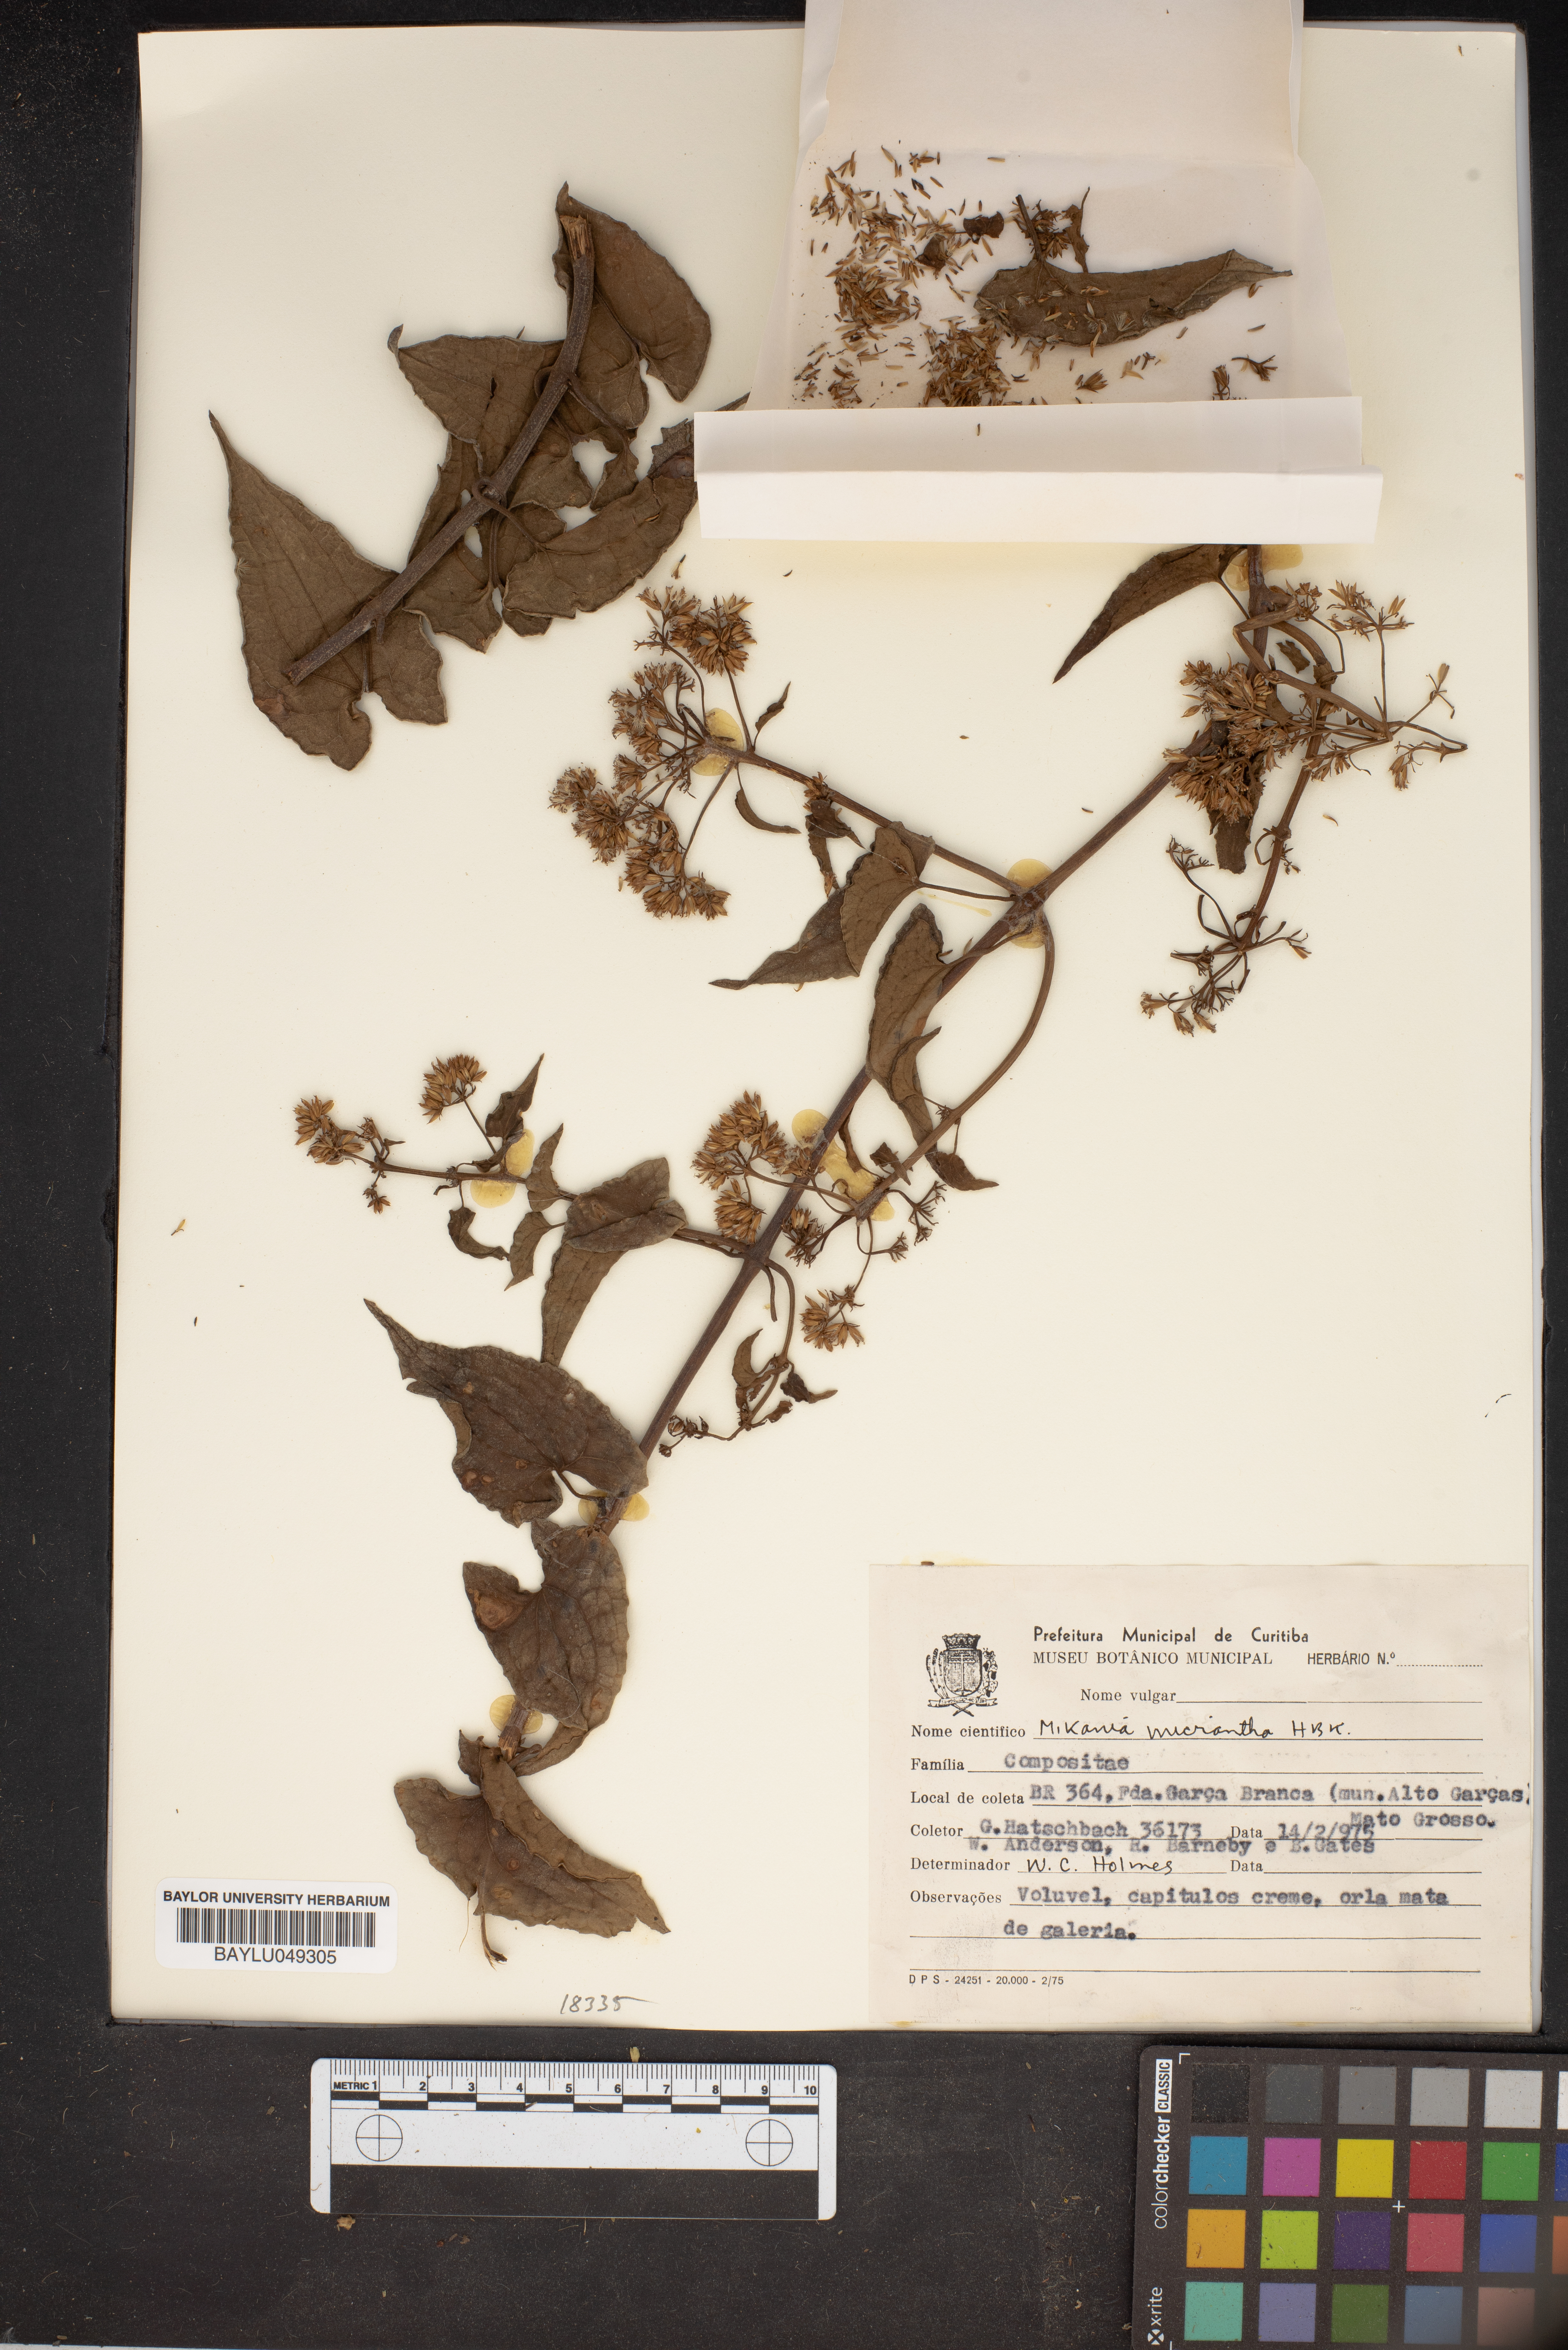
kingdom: Plantae
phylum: Tracheophyta
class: Magnoliopsida
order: Asterales
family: Asteraceae
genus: Mikania
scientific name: Mikania micrantha
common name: Mile-a-minute
